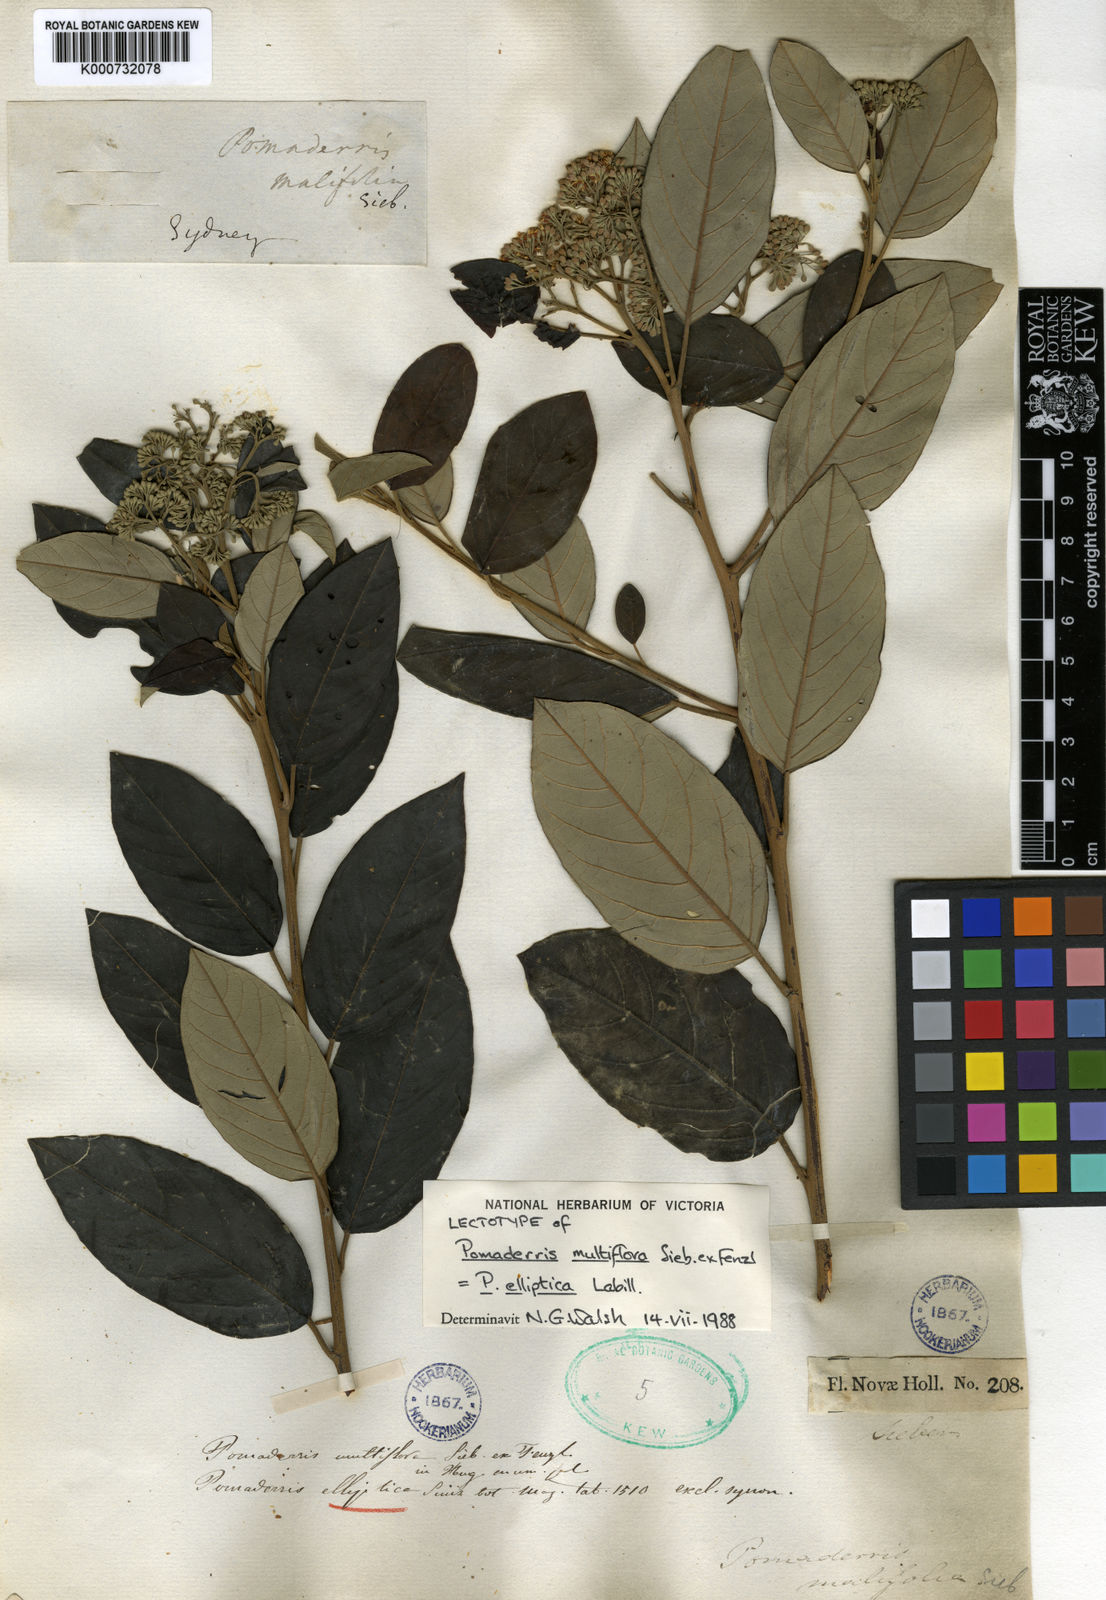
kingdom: Plantae
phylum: Tracheophyta
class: Magnoliopsida
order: Rosales
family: Rhamnaceae
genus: Pomaderris
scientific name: Pomaderris multiflora
